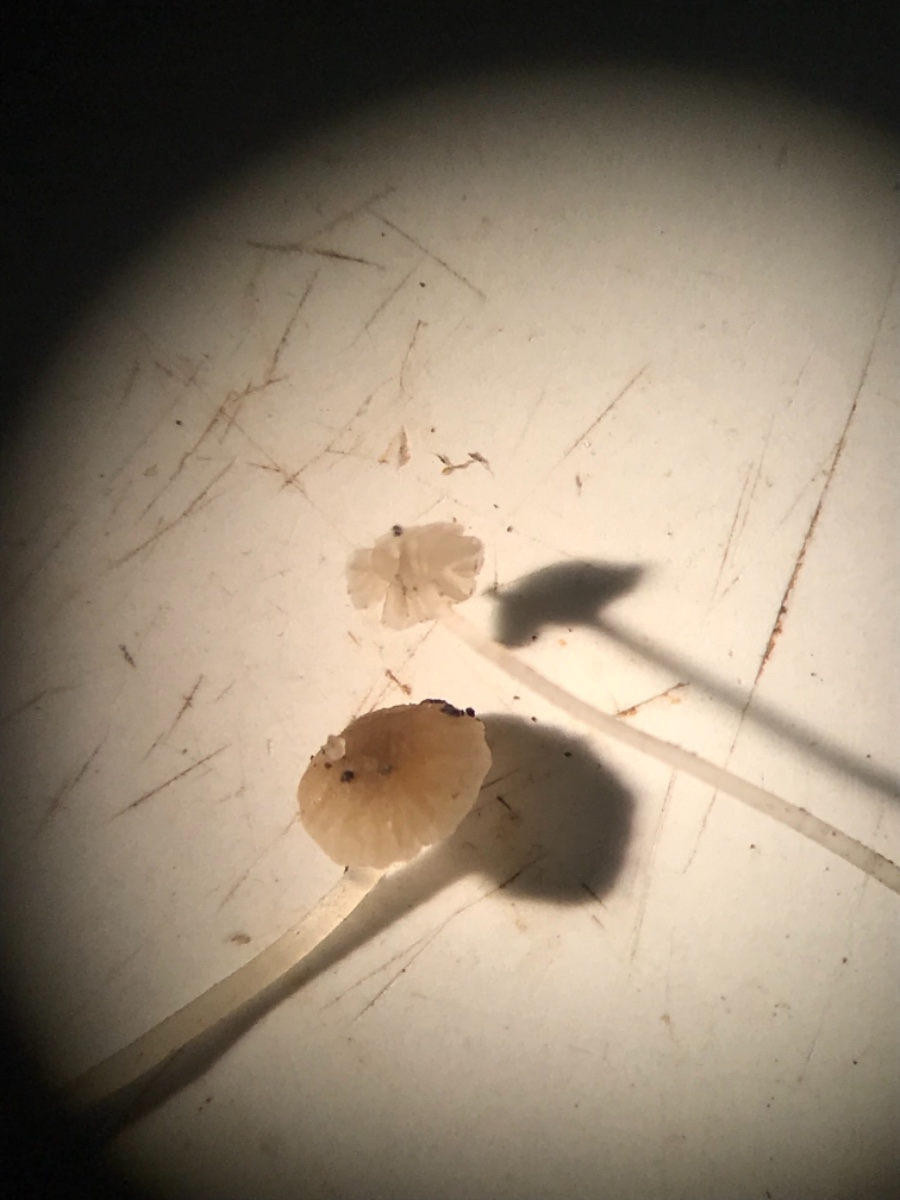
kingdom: Fungi
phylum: Basidiomycota
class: Agaricomycetes
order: Agaricales
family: Porotheleaceae
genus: Phloeomana
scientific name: Phloeomana speirea
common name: kvist-huesvamp
